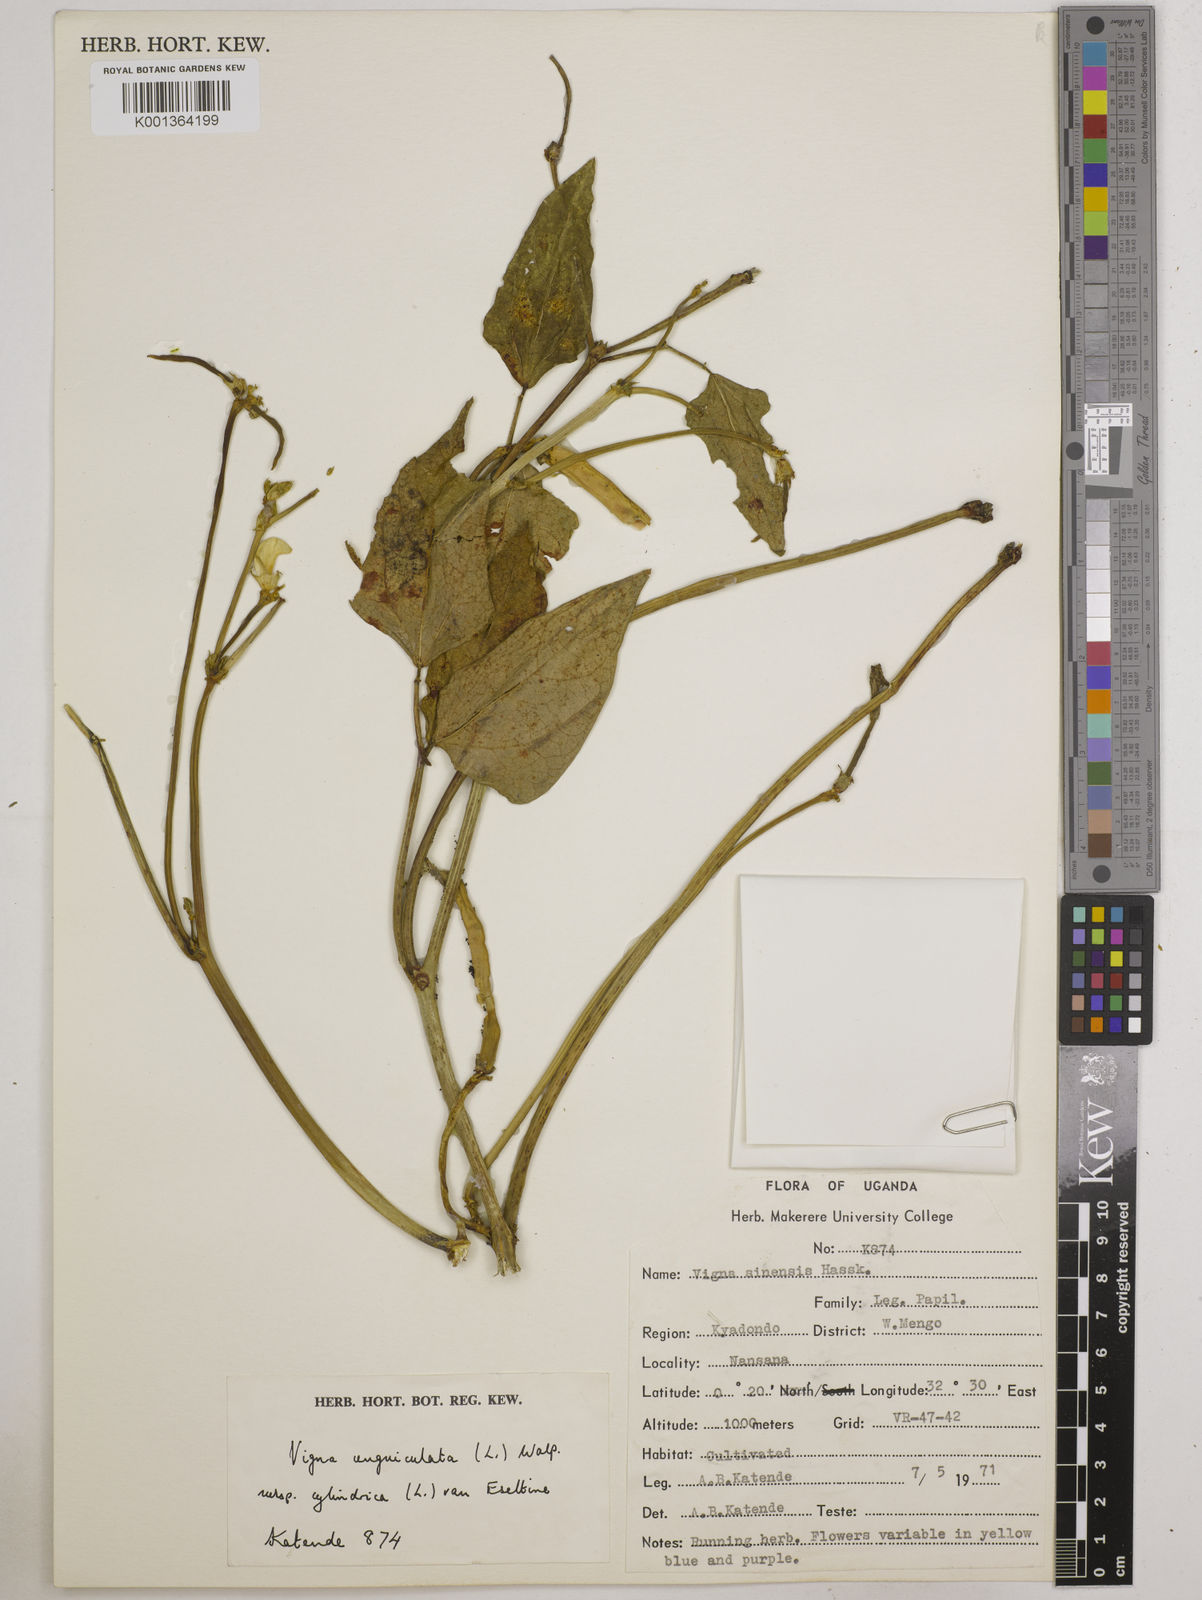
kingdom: Plantae
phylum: Tracheophyta
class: Magnoliopsida
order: Fabales
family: Fabaceae
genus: Vigna
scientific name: Vigna
